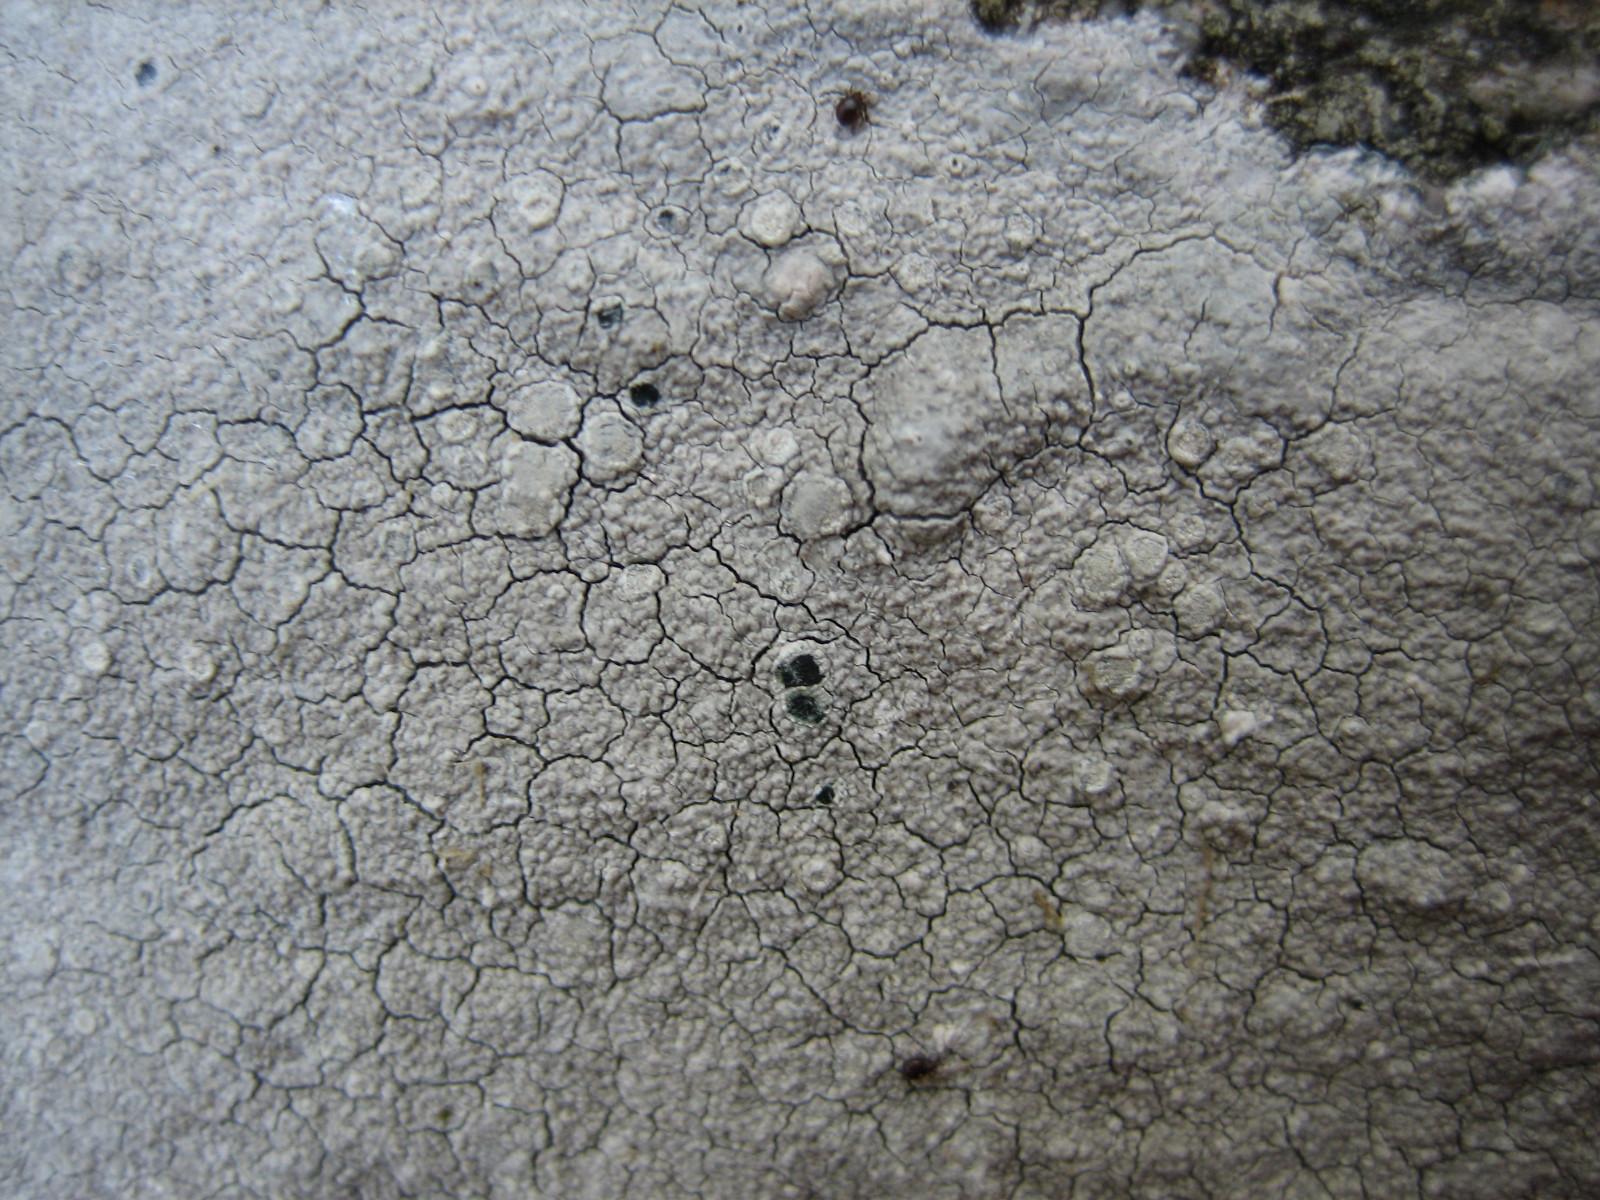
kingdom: Fungi
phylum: Ascomycota
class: Lecanoromycetes
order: Lecanorales
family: Lecanoraceae
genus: Glaucomaria
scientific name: Glaucomaria rupicola
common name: stengærde-kantskivelav
